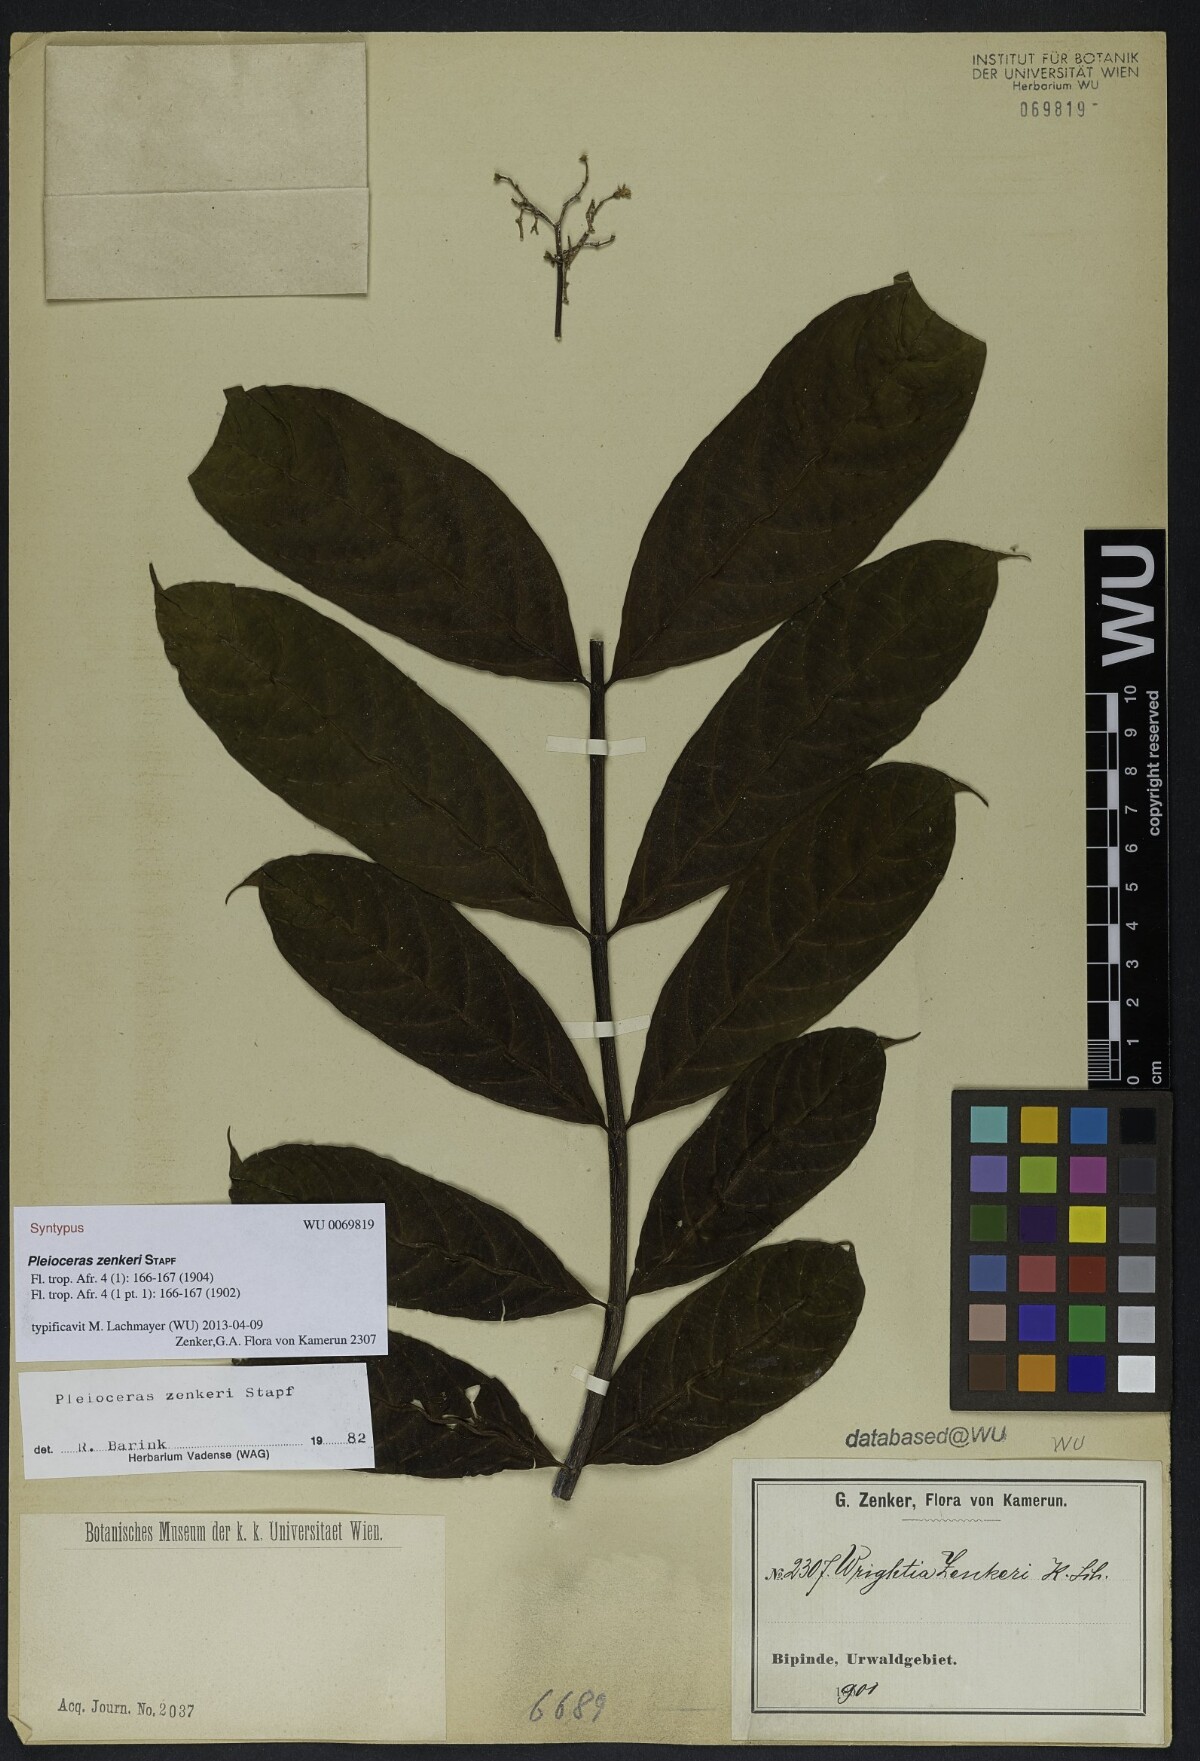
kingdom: Plantae
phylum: Tracheophyta
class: Magnoliopsida
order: Gentianales
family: Apocynaceae
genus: Pleioceras
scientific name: Pleioceras zenkeri
